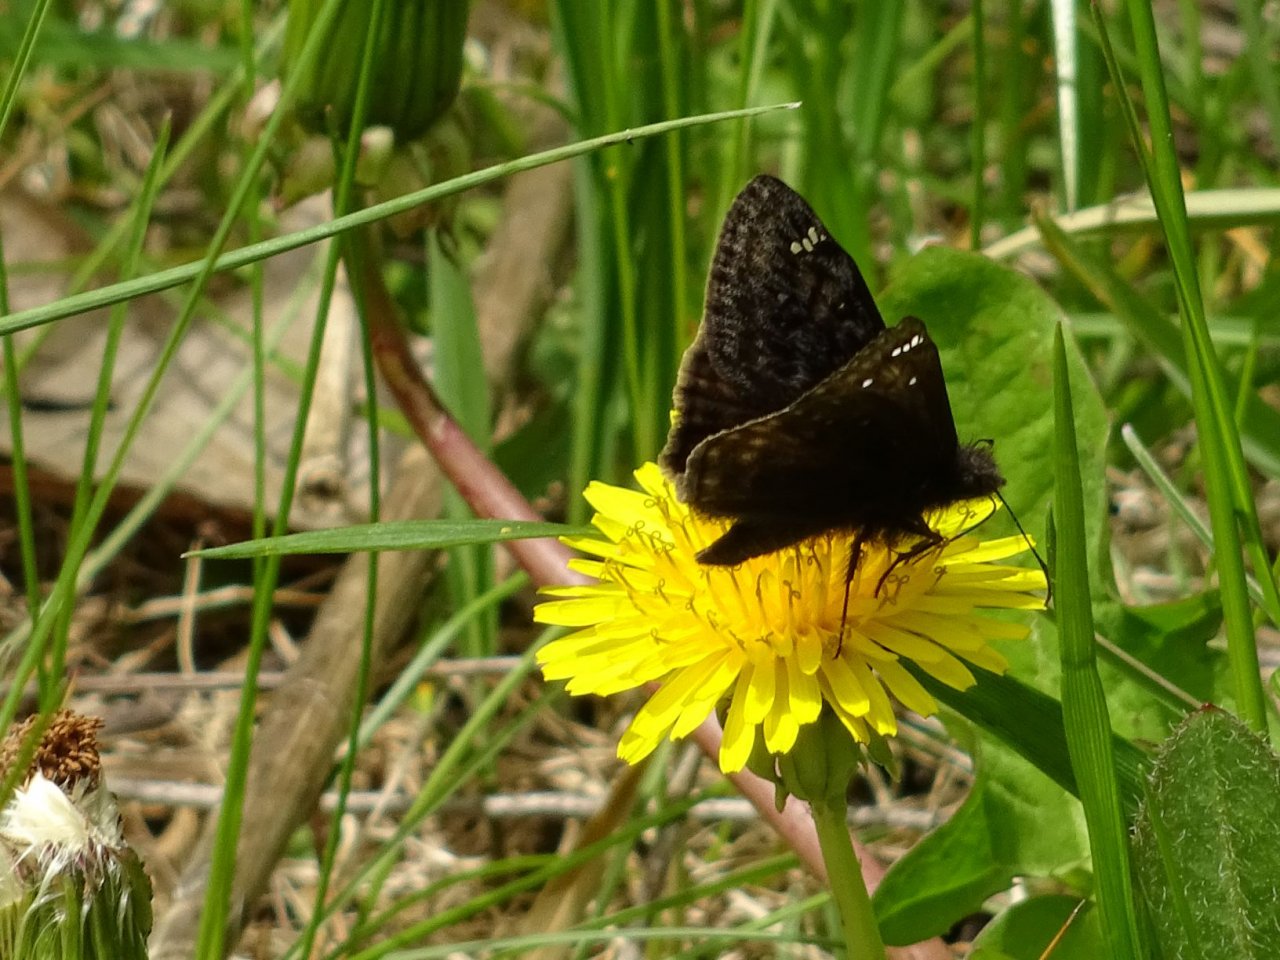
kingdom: Animalia
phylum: Arthropoda
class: Insecta
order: Lepidoptera
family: Hesperiidae
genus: Gesta
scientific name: Gesta
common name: Juvenal's Duskywing
